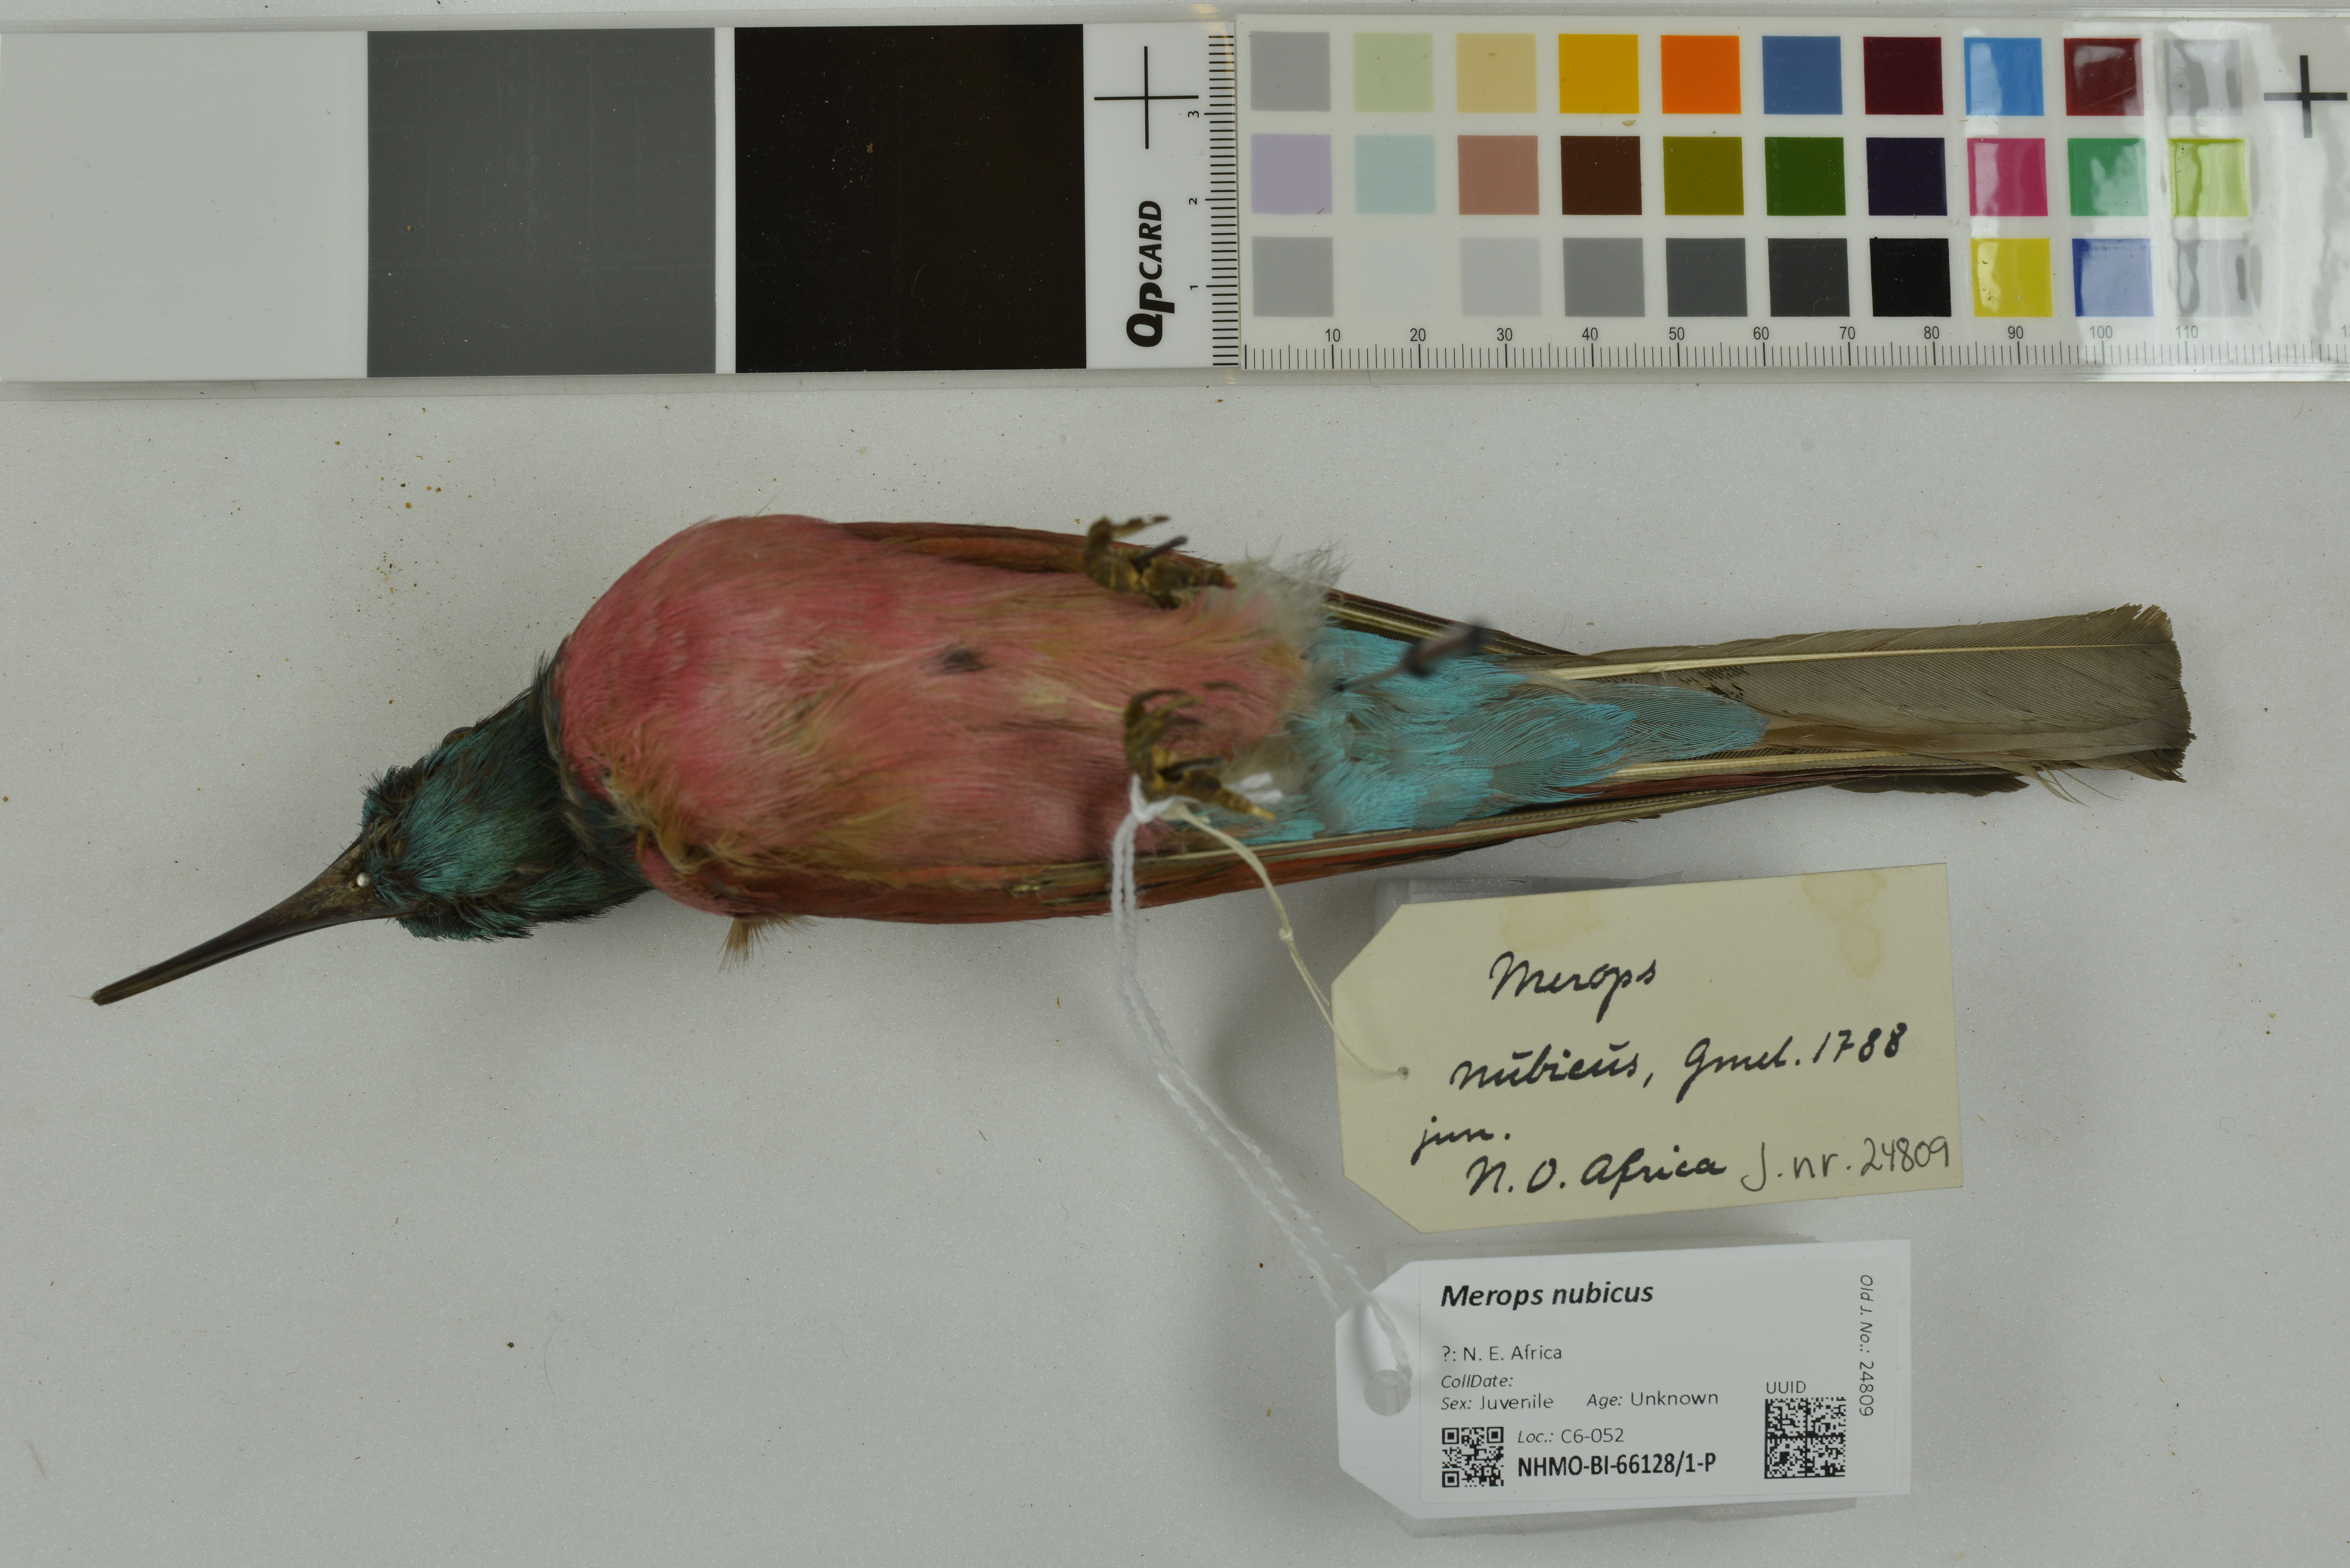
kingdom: Animalia
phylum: Chordata
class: Aves
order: Coraciiformes
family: Meropidae
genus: Merops
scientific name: Merops nubicus
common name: Northern carmine bee-eater
